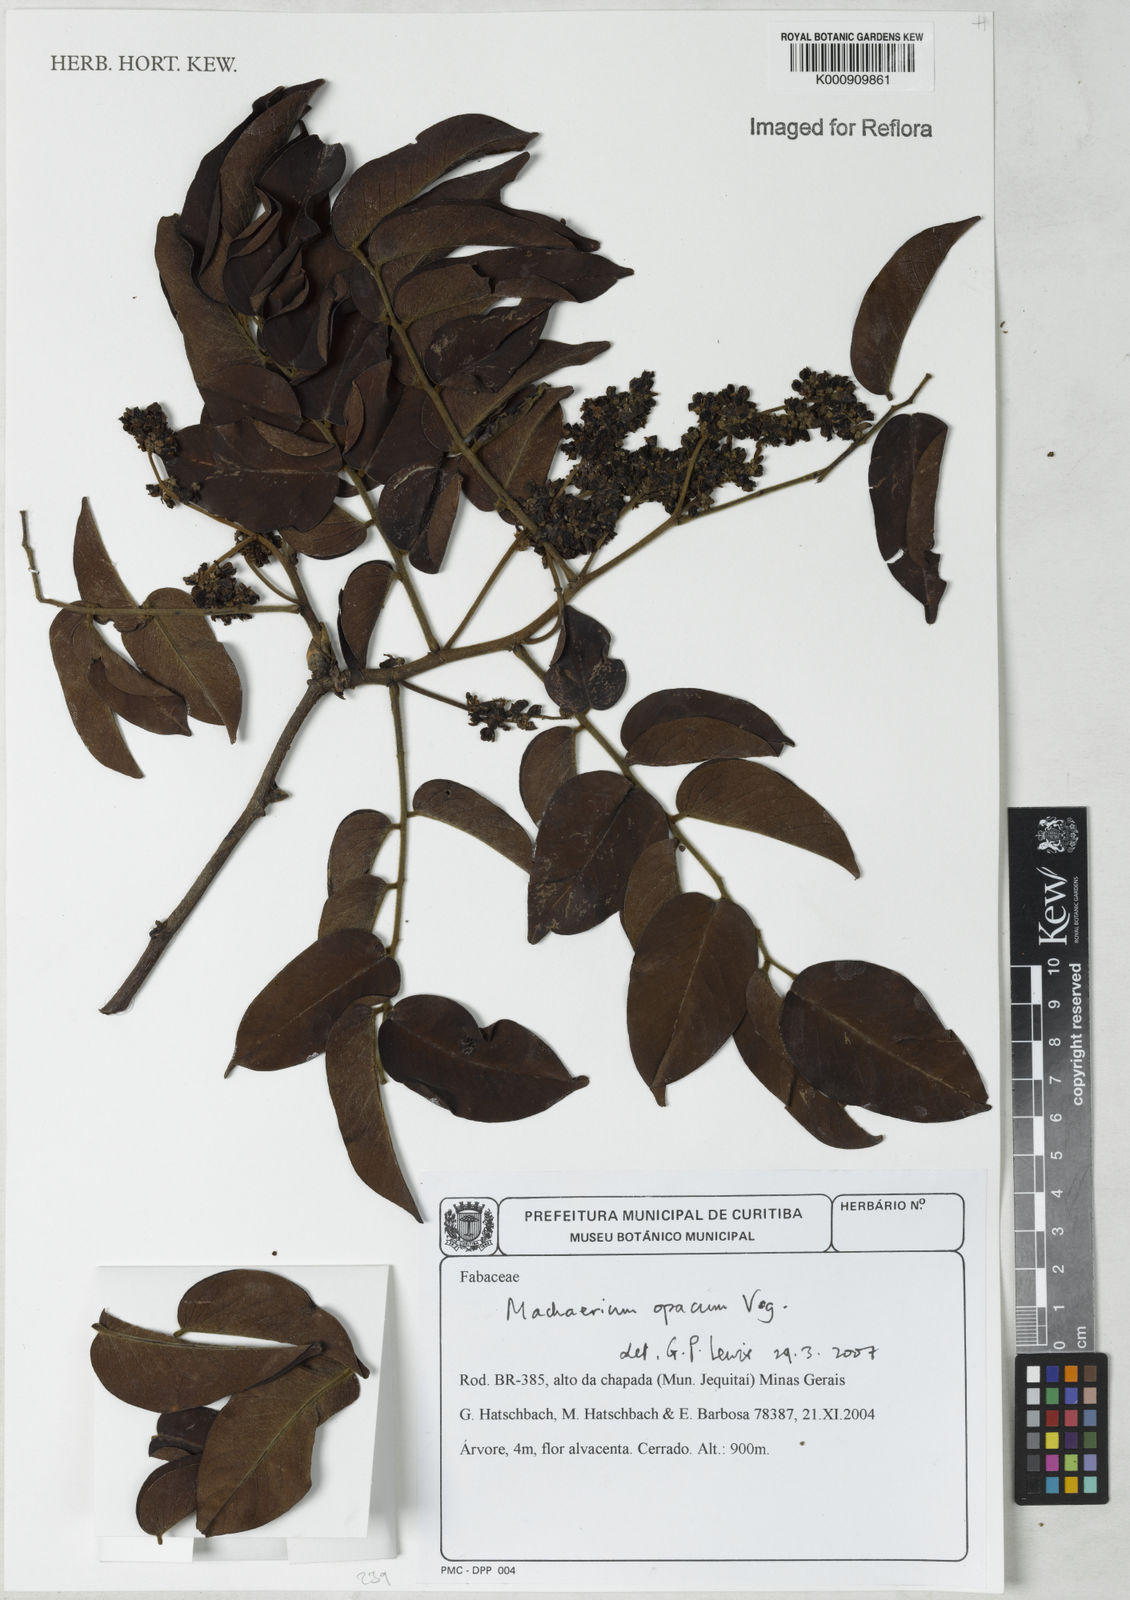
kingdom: Plantae
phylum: Tracheophyta
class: Magnoliopsida
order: Fabales
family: Fabaceae
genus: Machaerium
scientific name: Machaerium opacum
